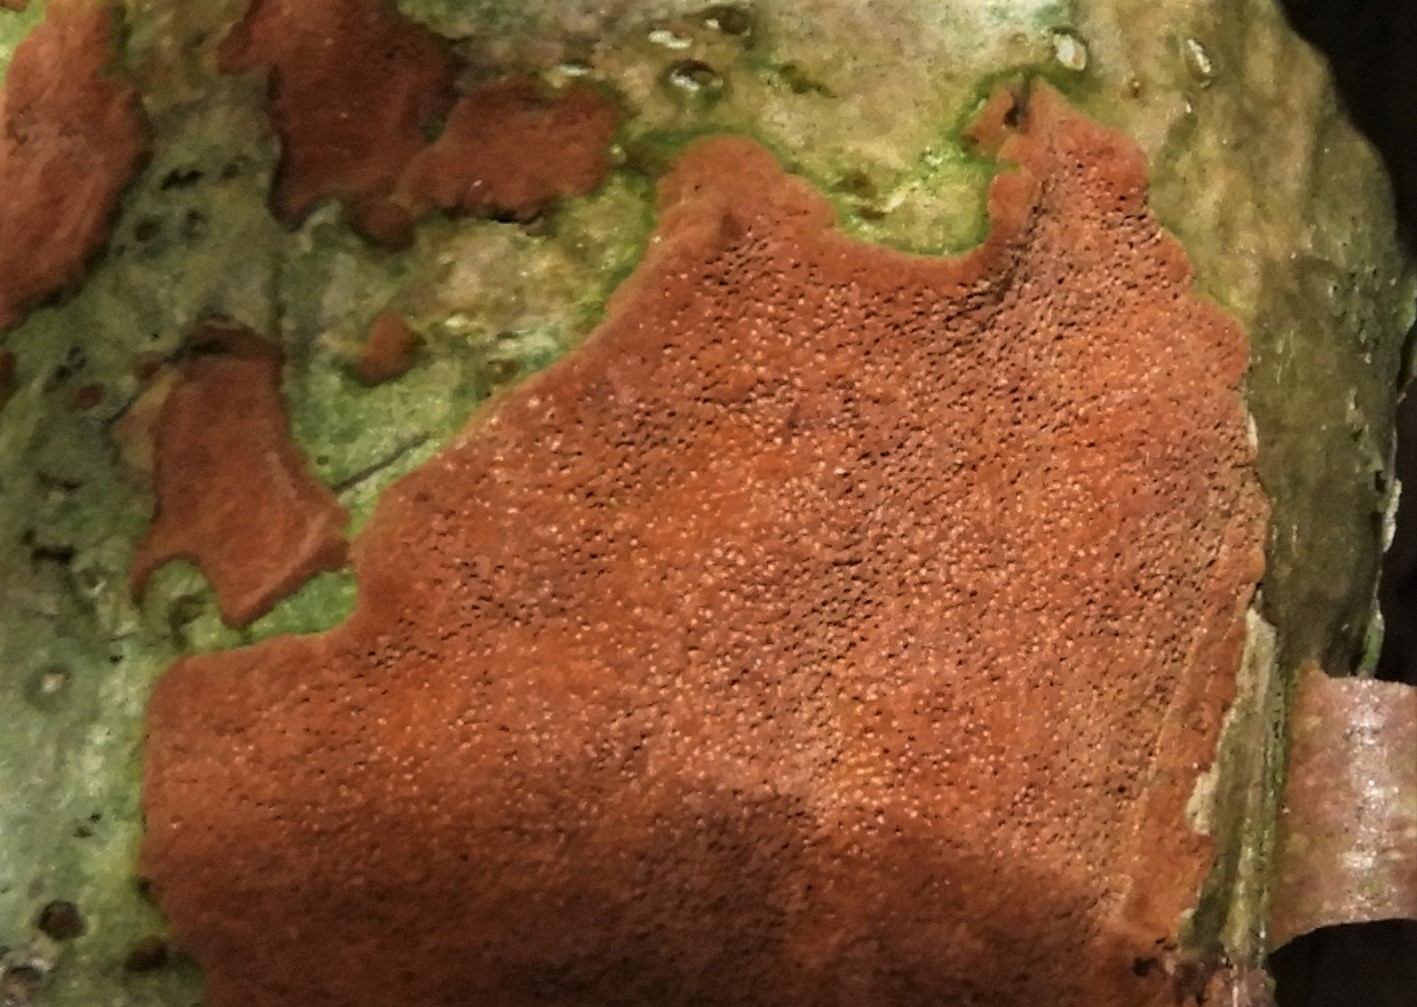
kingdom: Fungi
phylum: Basidiomycota
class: Agaricomycetes
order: Hymenochaetales
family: Hymenochaetaceae
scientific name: Hymenochaetaceae
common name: børstesvampfamilien
